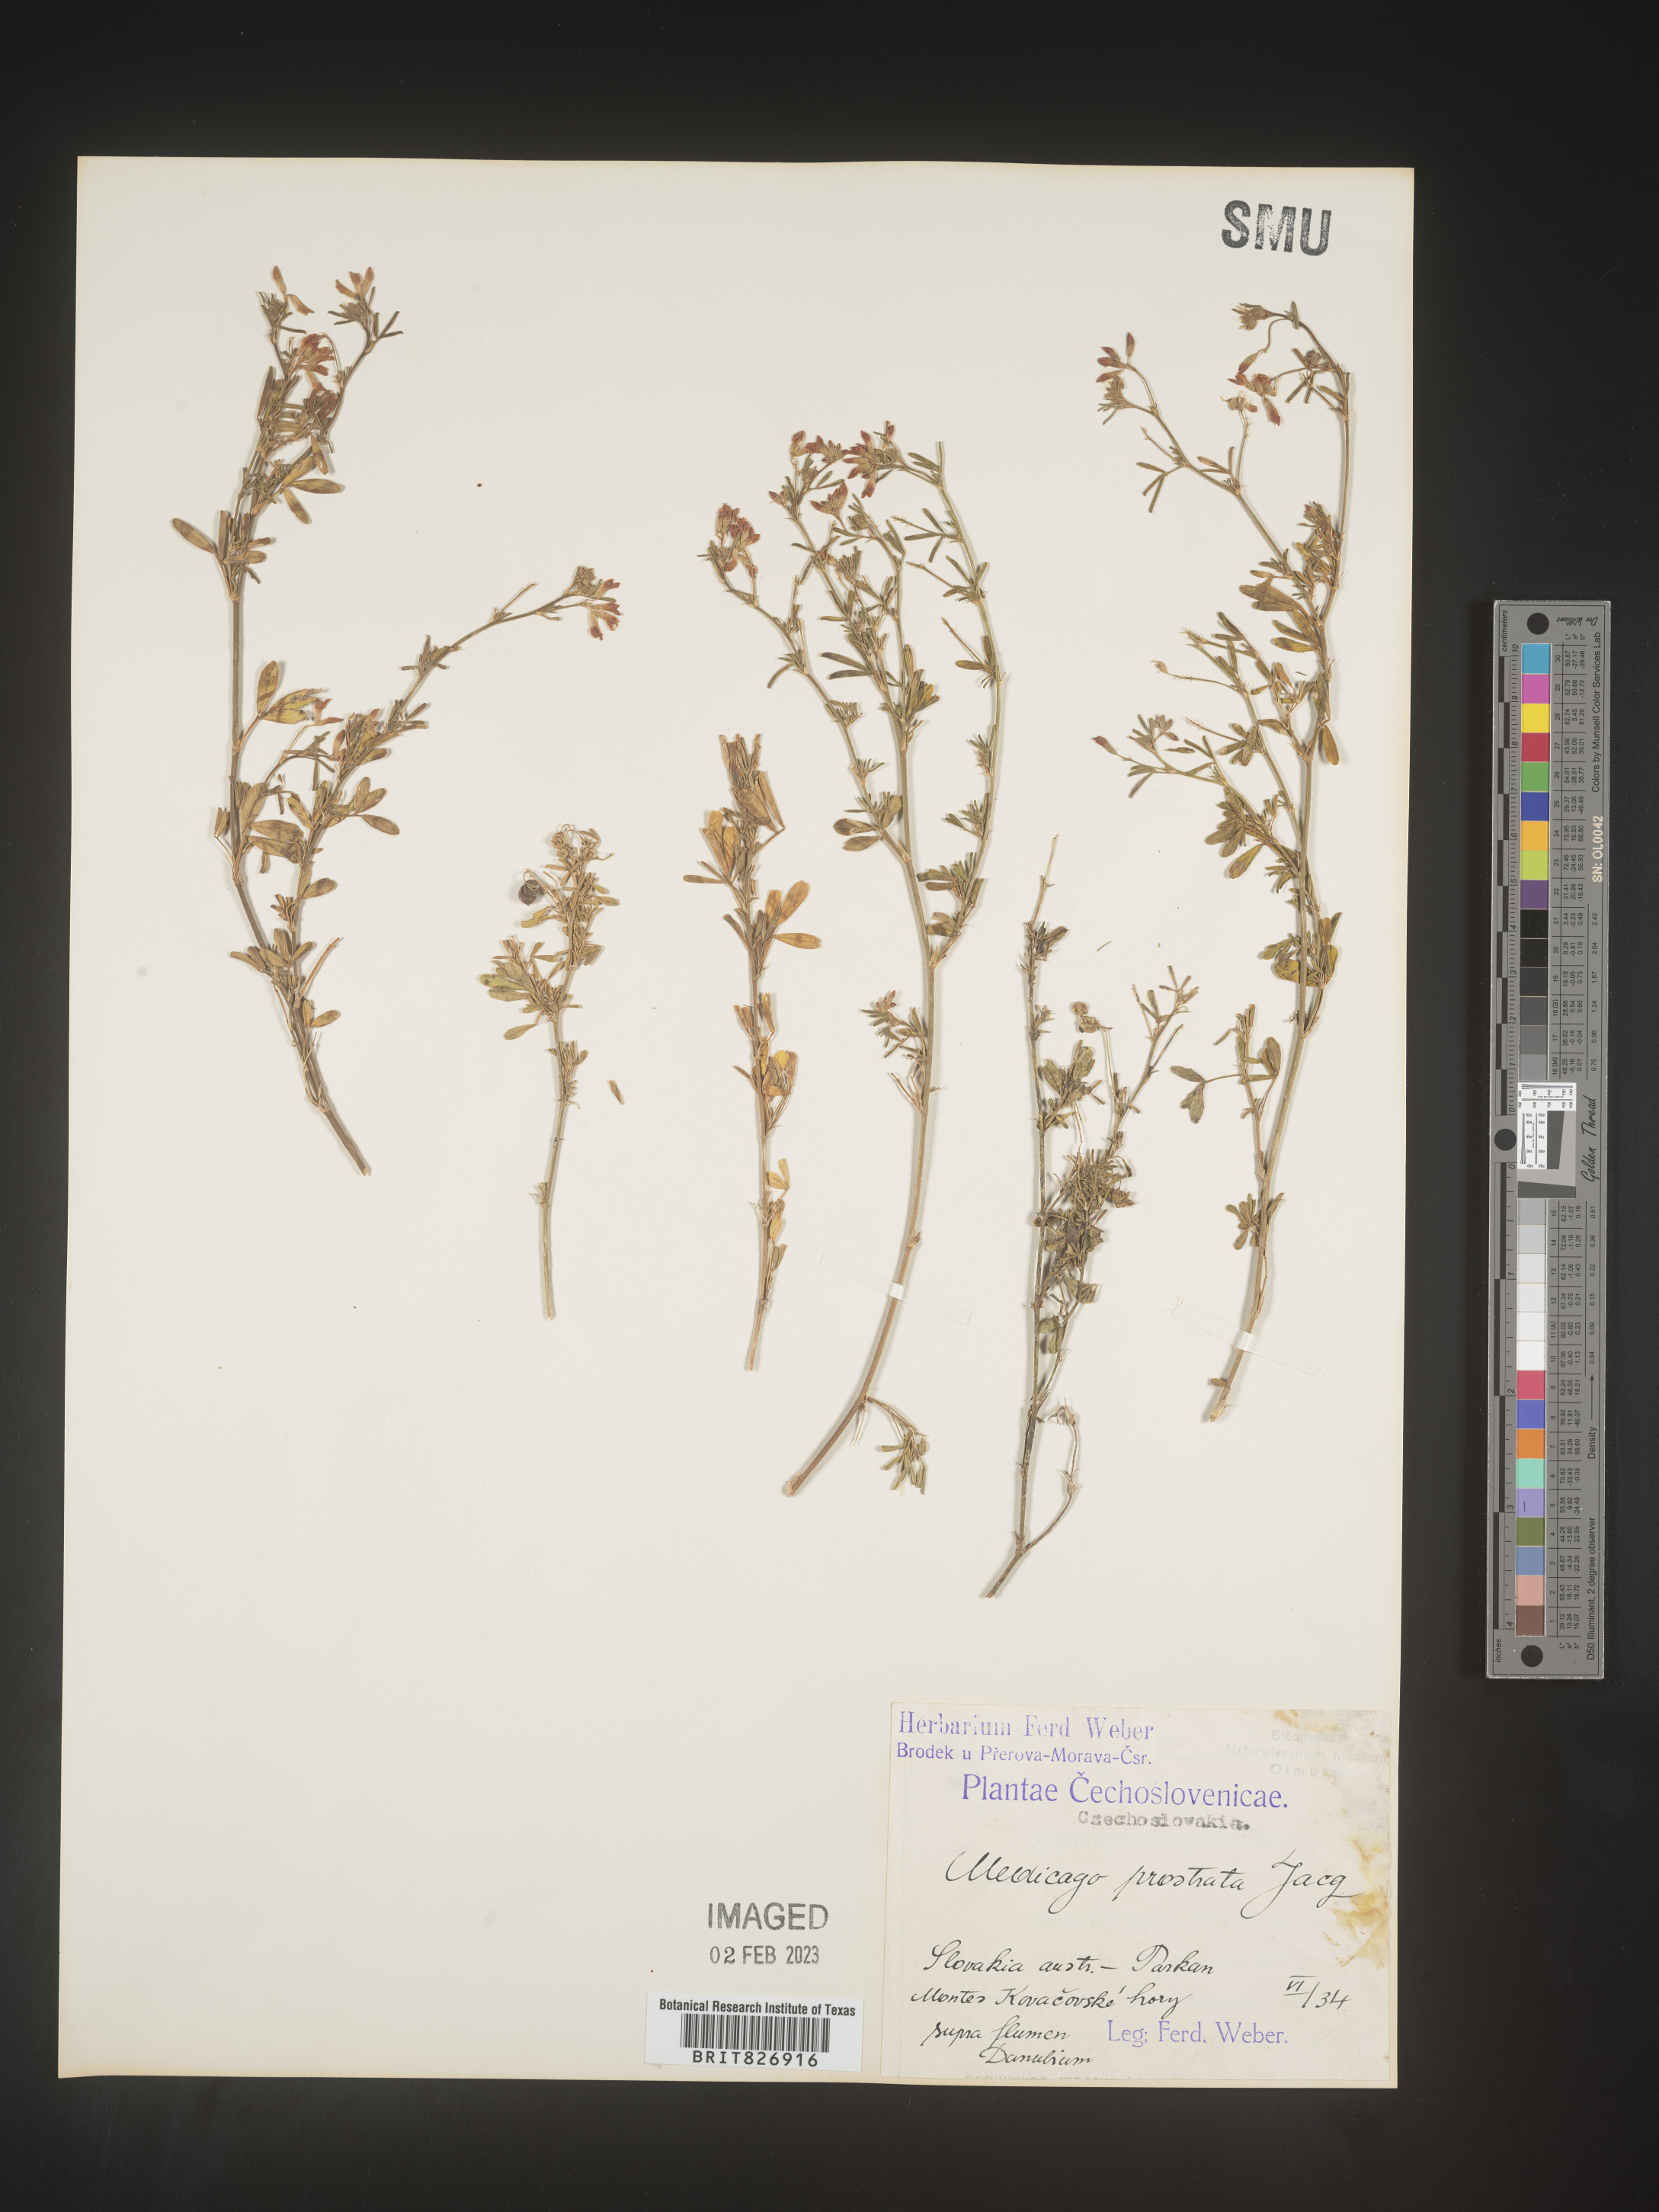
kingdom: Plantae
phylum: Tracheophyta
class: Magnoliopsida
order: Fabales
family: Fabaceae
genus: Medicago
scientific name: Medicago
